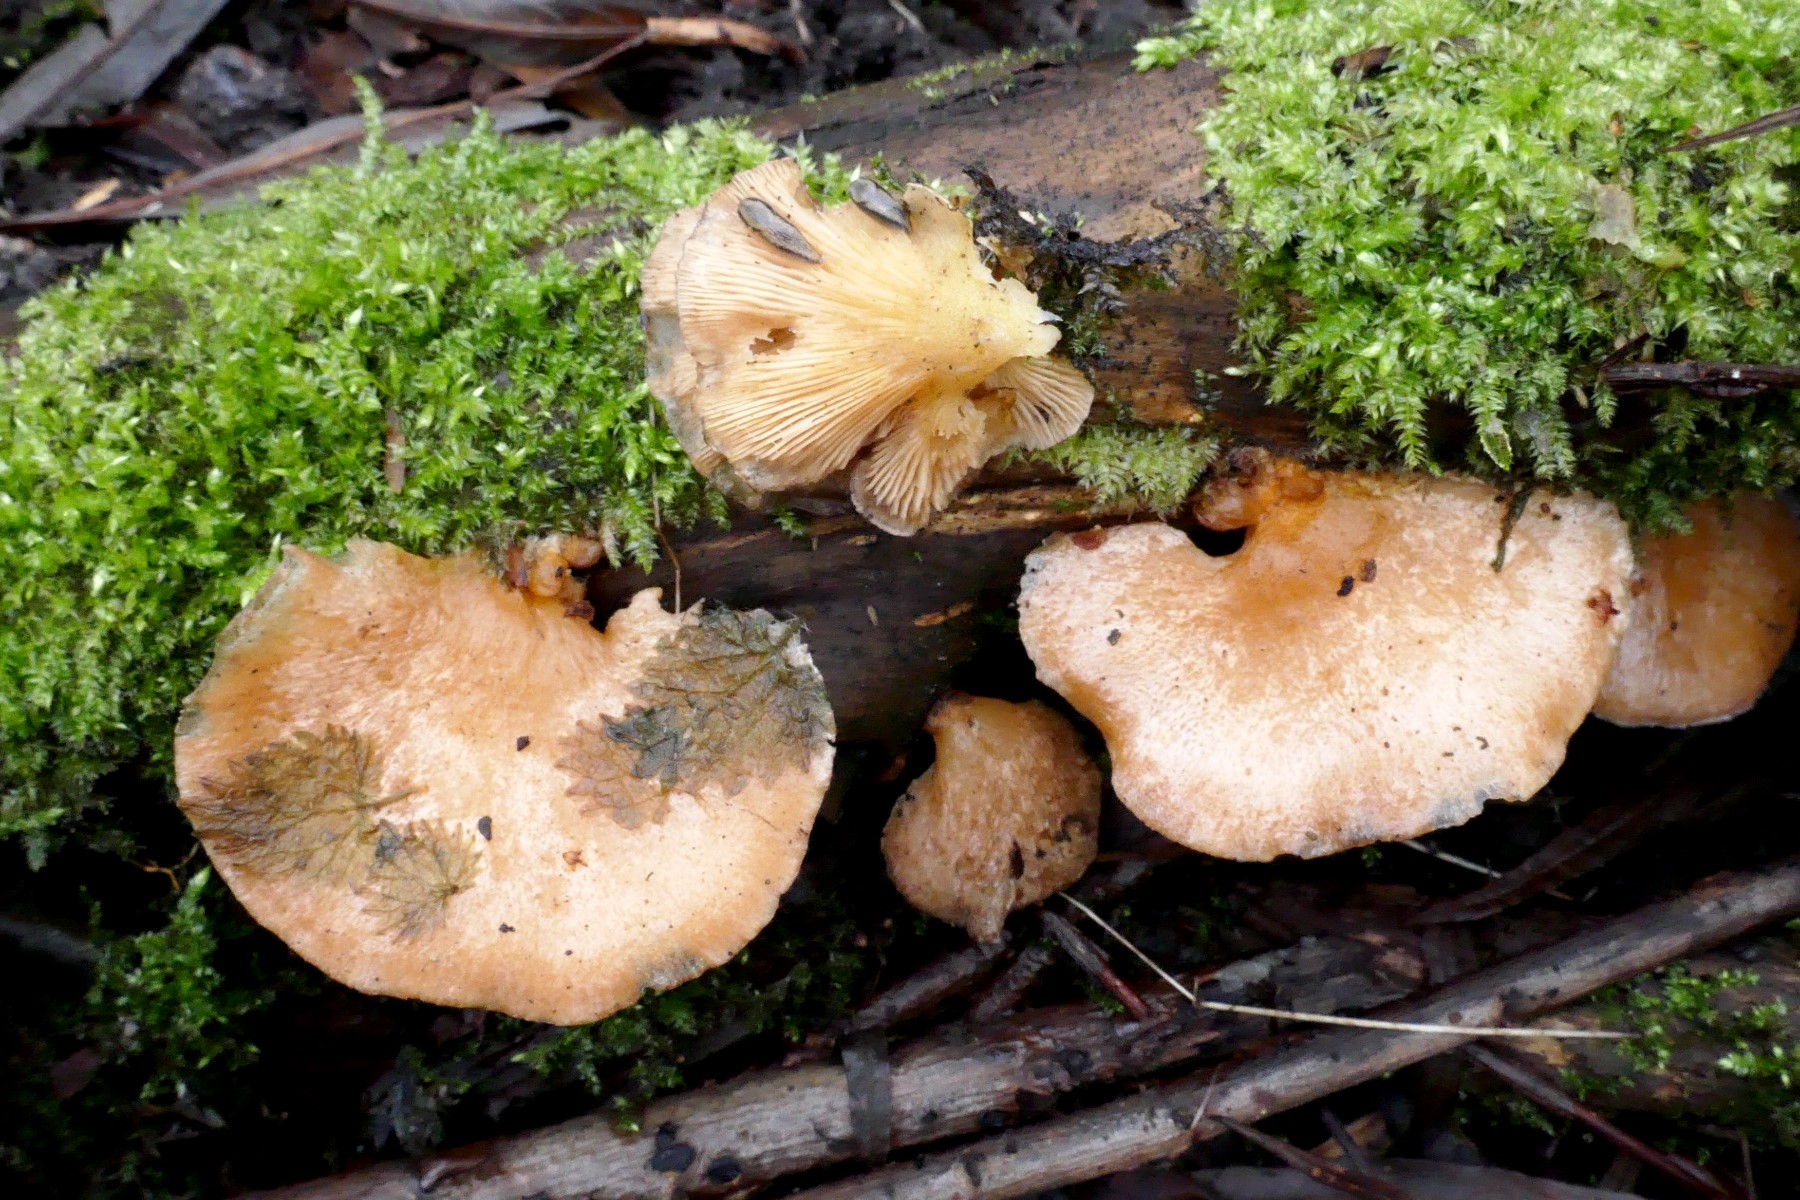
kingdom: Fungi
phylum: Basidiomycota
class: Agaricomycetes
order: Agaricales
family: Sarcomyxaceae
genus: Sarcomyxa
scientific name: Sarcomyxa serotina
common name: gummihat
